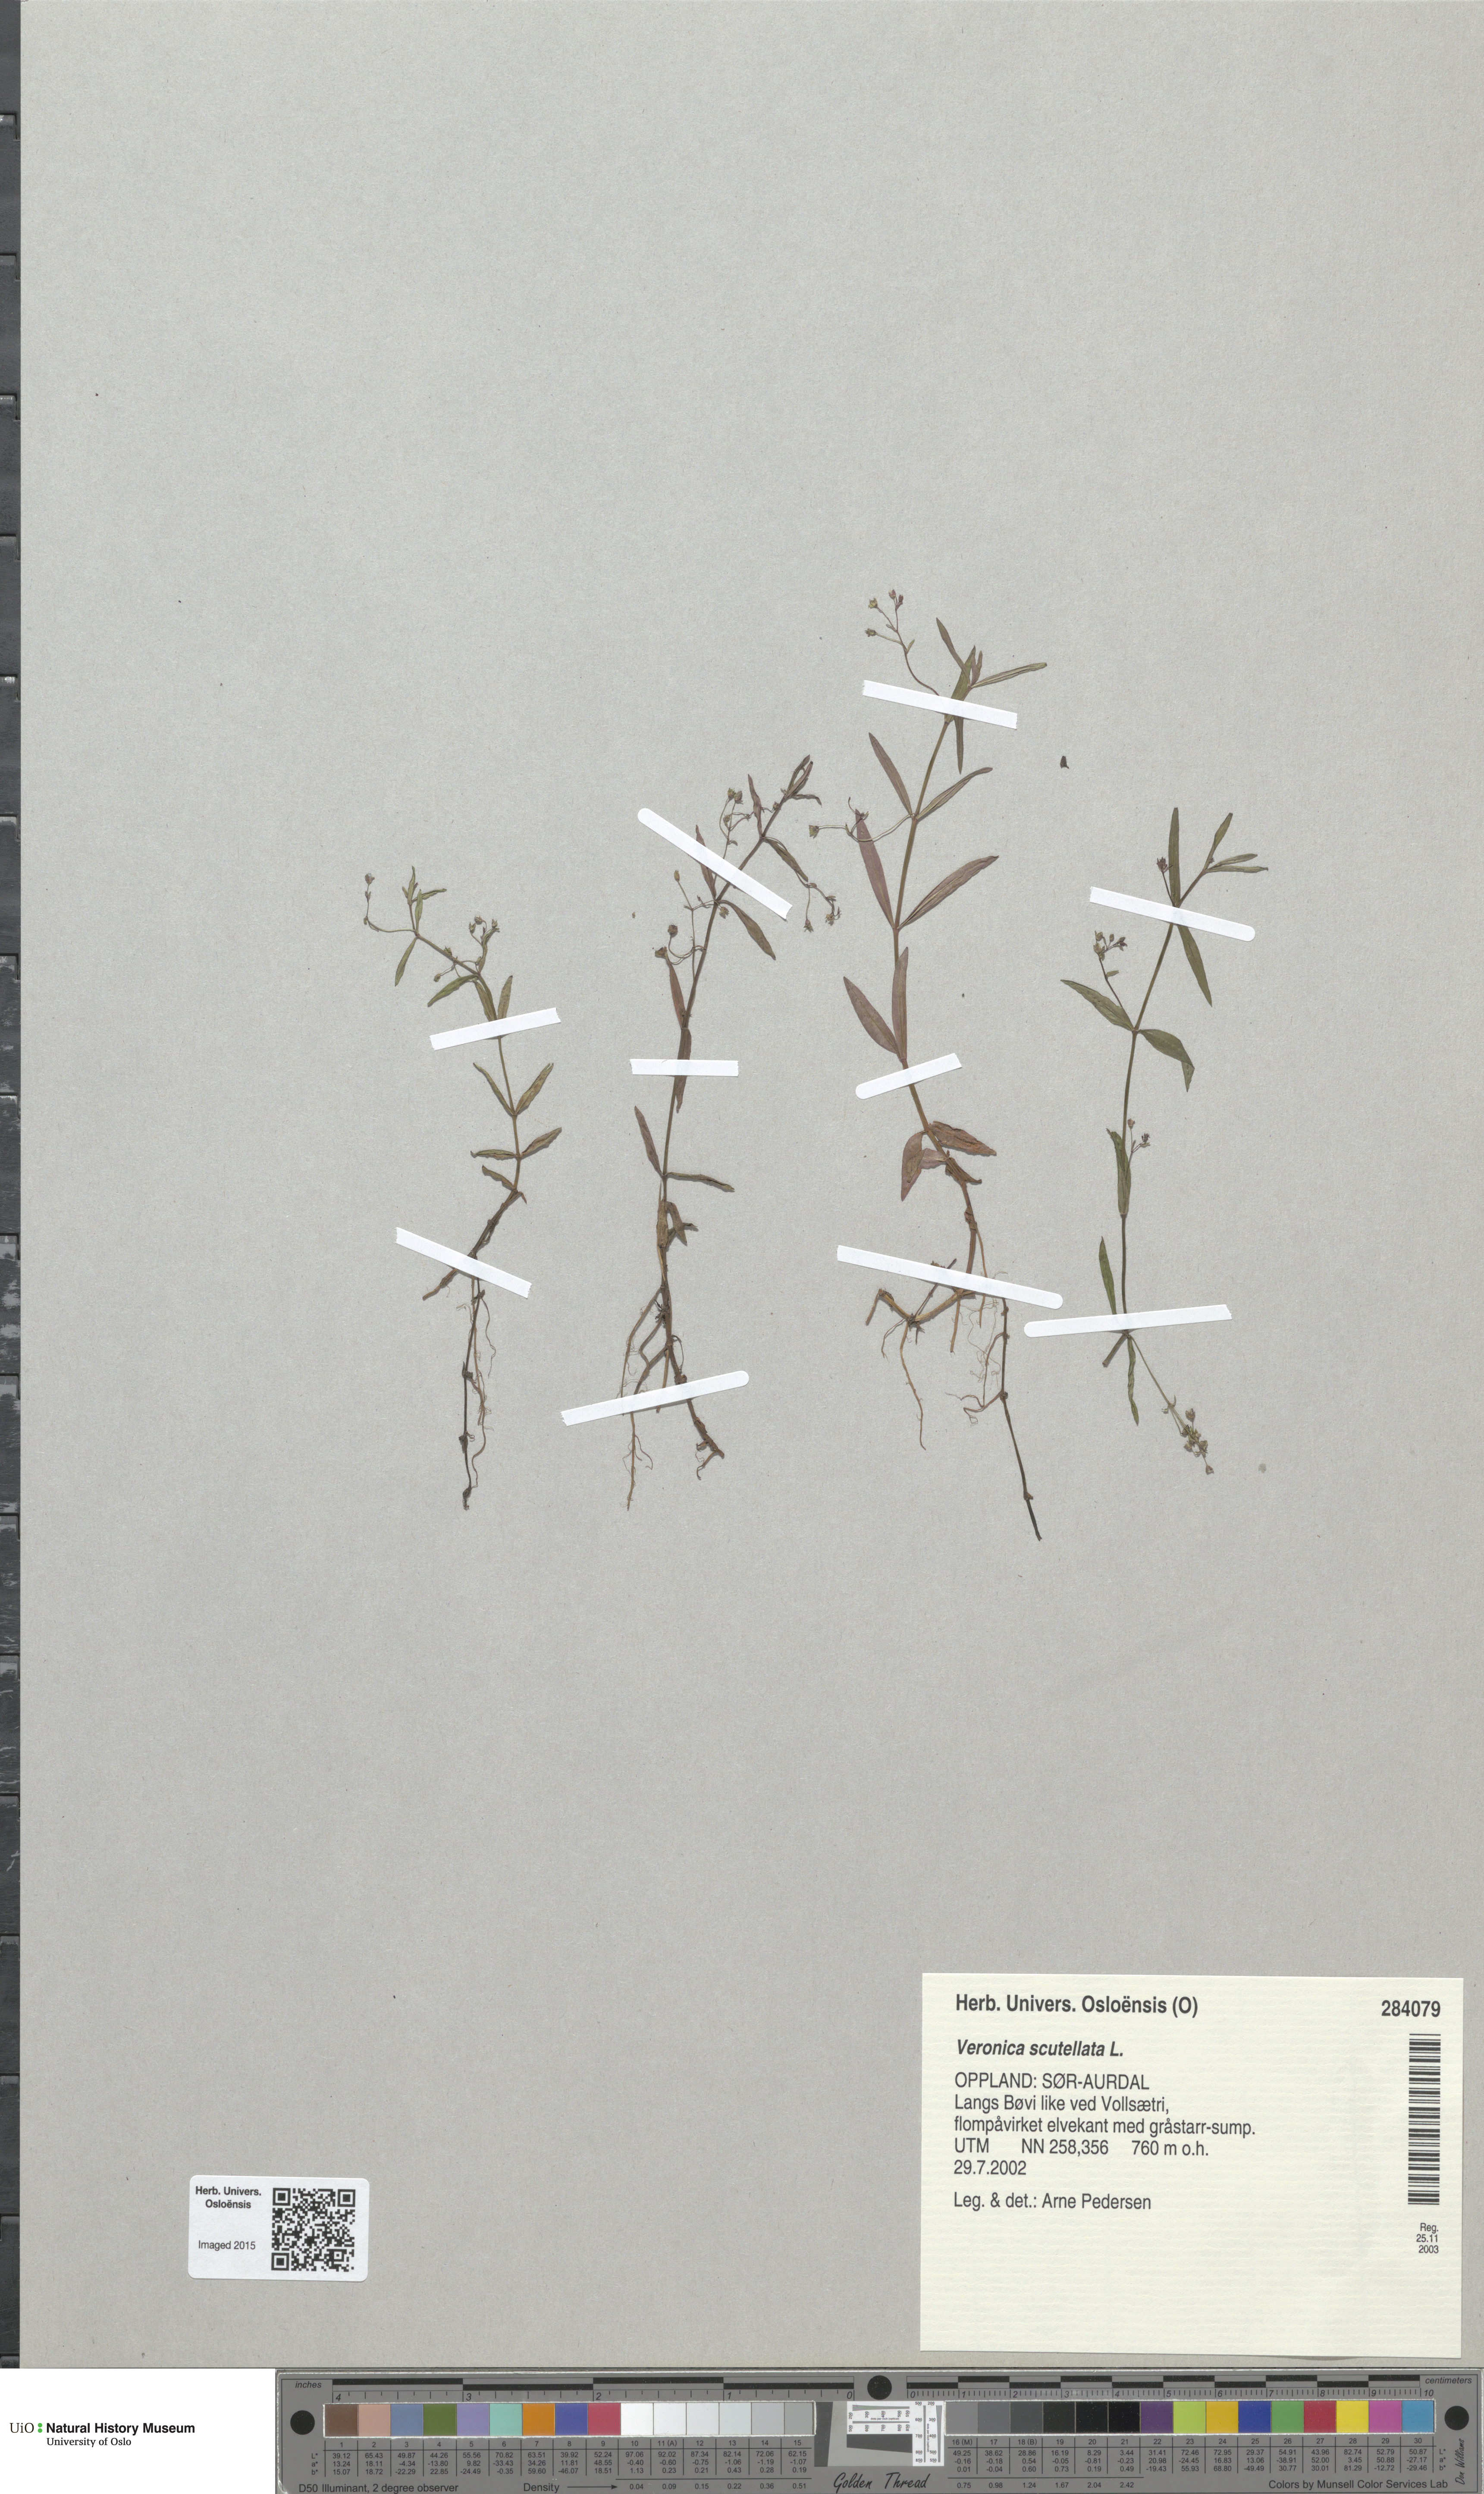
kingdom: Plantae
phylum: Tracheophyta
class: Magnoliopsida
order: Lamiales
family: Plantaginaceae
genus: Veronica
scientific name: Veronica scutellata
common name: Marsh speedwell
